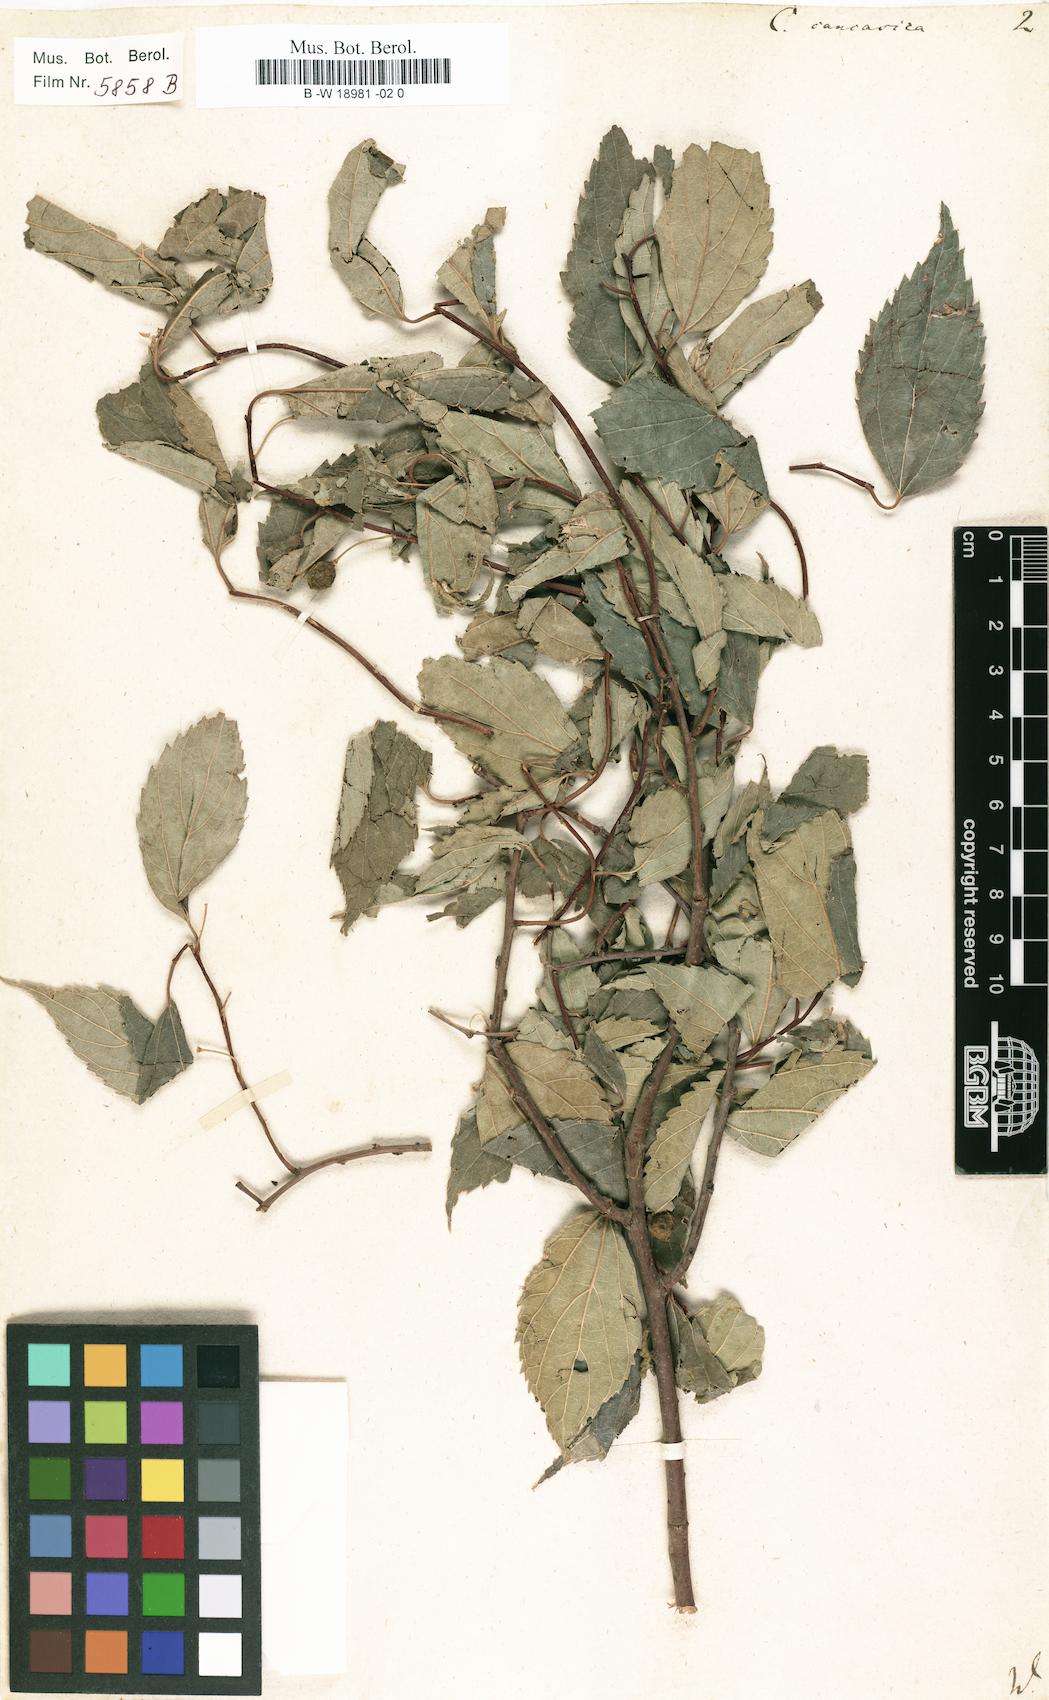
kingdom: Plantae
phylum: Tracheophyta
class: Magnoliopsida
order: Rosales
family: Cannabaceae
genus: Celtis
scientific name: Celtis caucasica
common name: Caucasian hackberry
